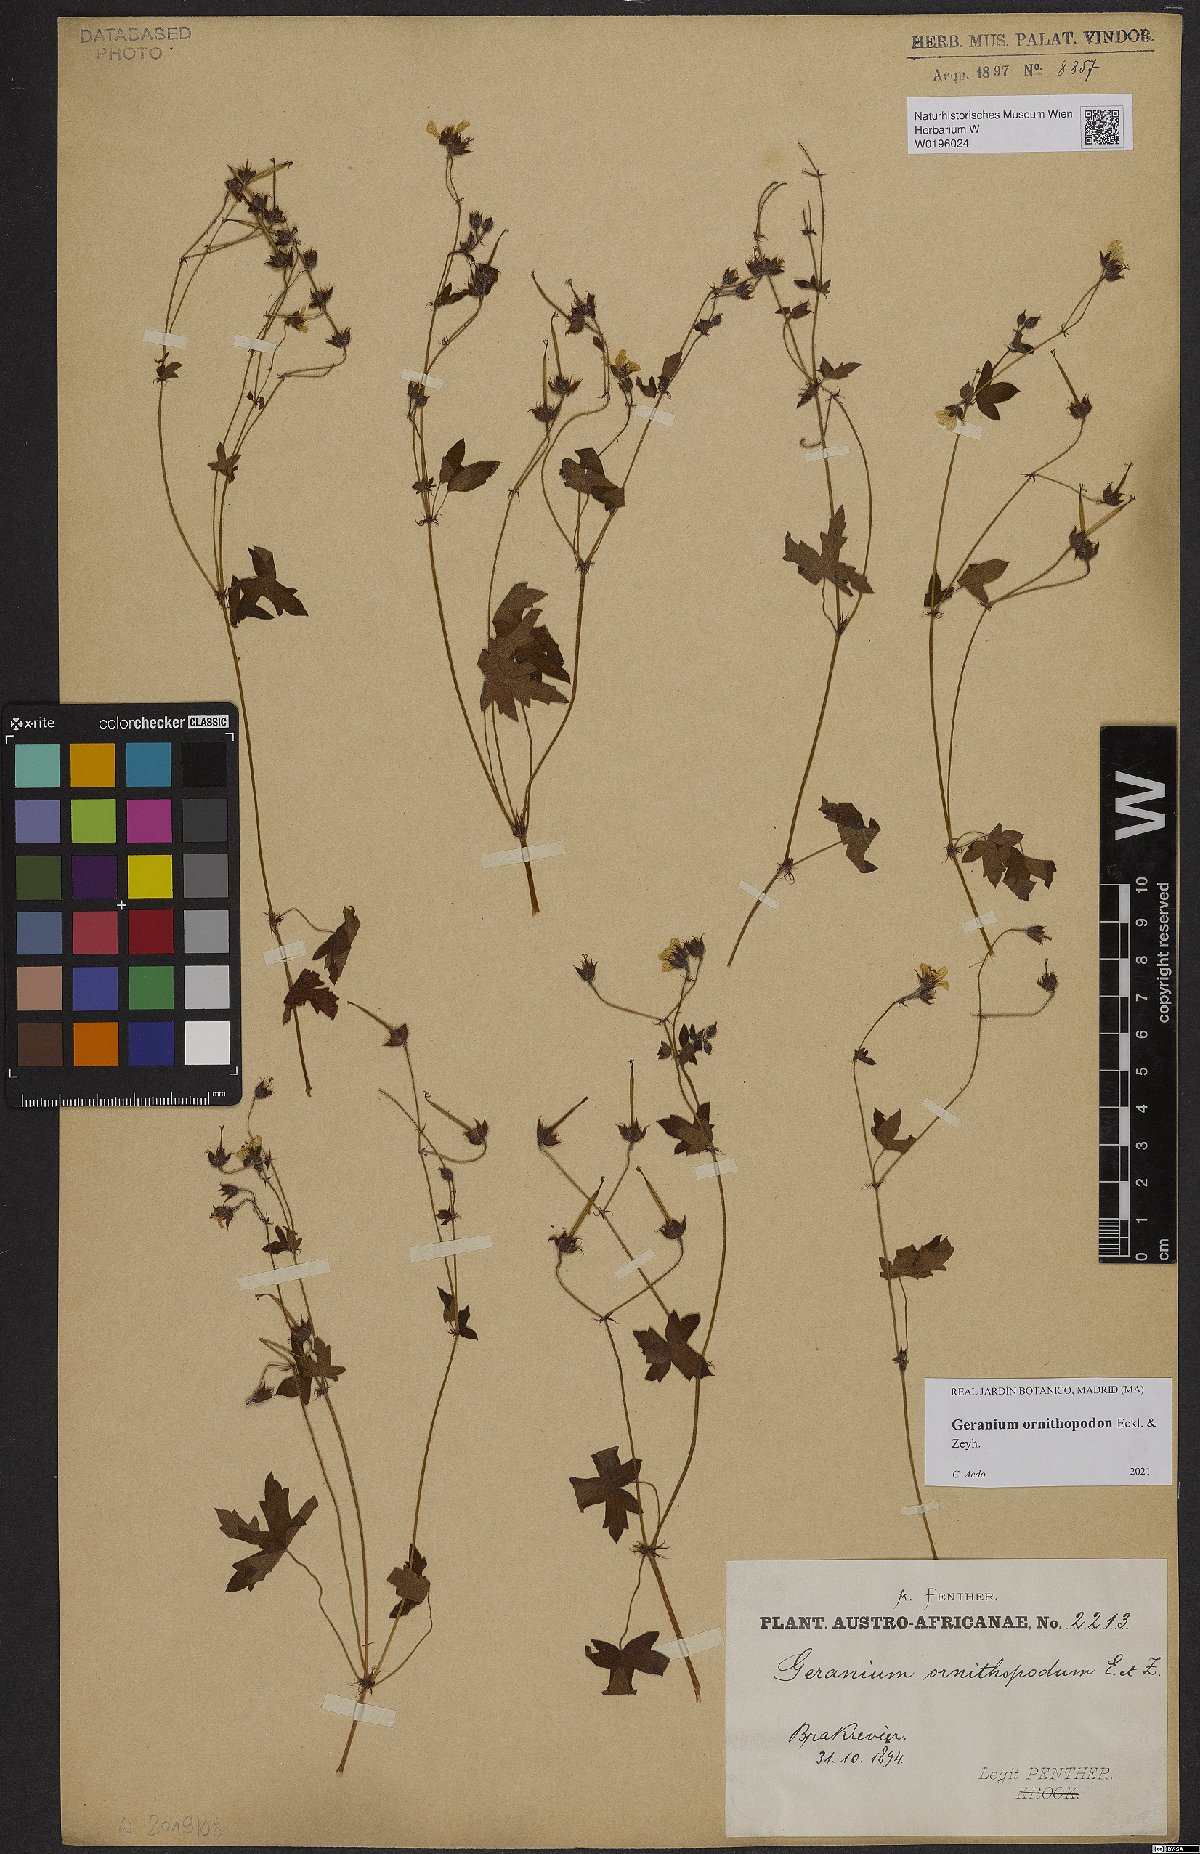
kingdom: Plantae
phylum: Tracheophyta
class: Magnoliopsida
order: Geraniales
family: Geraniaceae
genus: Geranium
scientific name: Geranium ornithopodon
